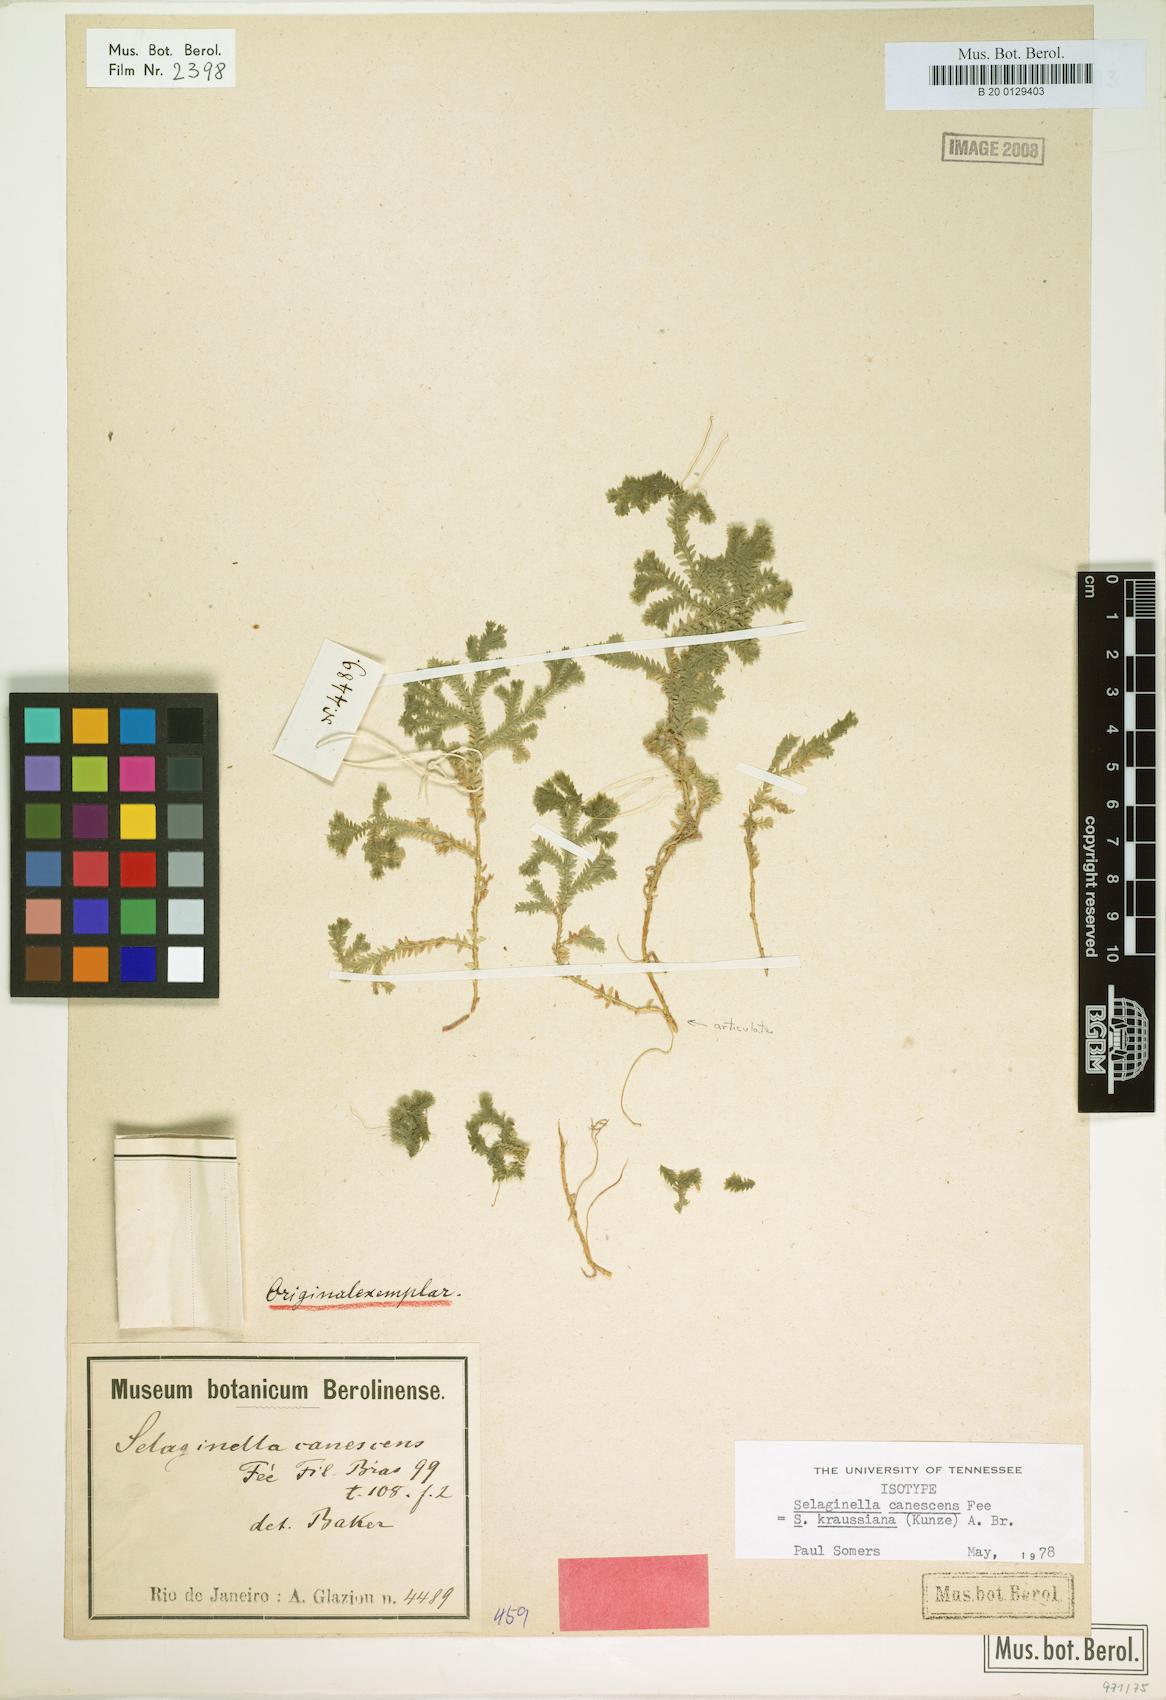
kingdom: Plantae
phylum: Tracheophyta
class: Lycopodiopsida
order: Selaginellales
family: Selaginellaceae
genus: Selaginella
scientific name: Selaginella kraussiana
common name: Krauss' spikemoss
